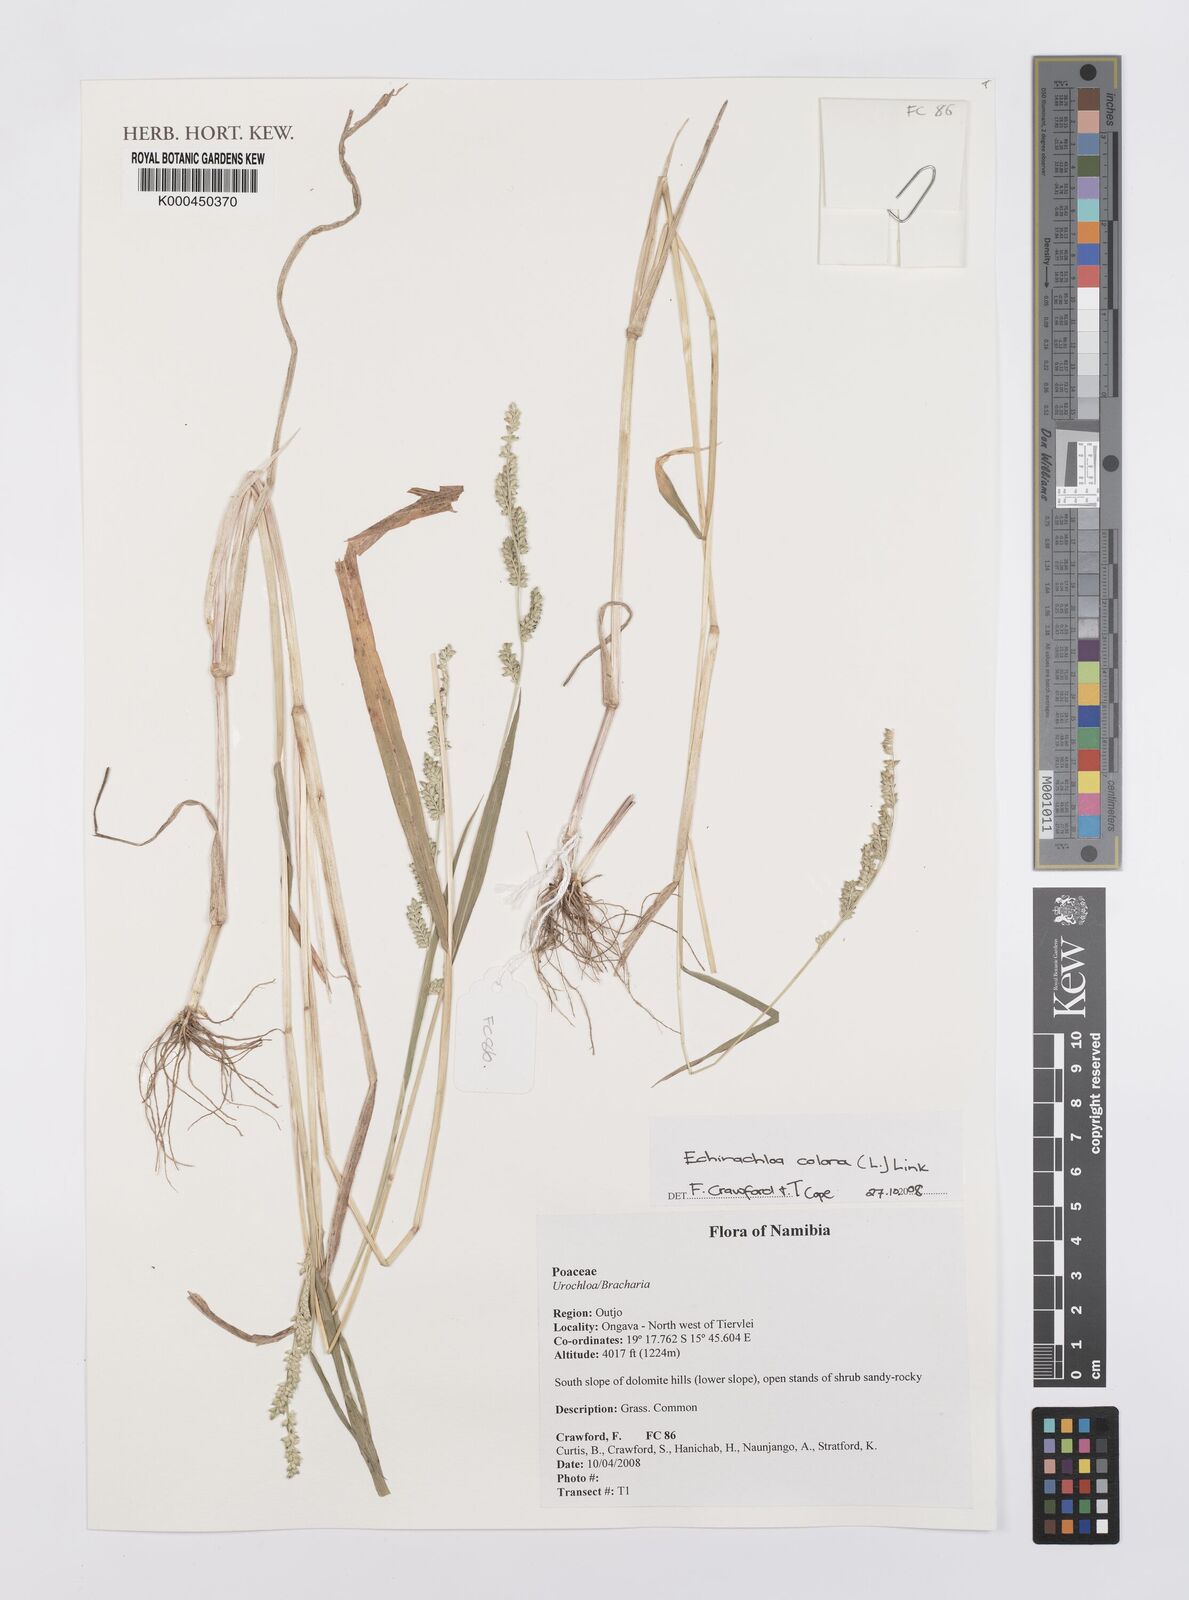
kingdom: Plantae
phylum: Tracheophyta
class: Liliopsida
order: Poales
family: Poaceae
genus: Echinochloa
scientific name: Echinochloa colonum
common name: Jungle rice
